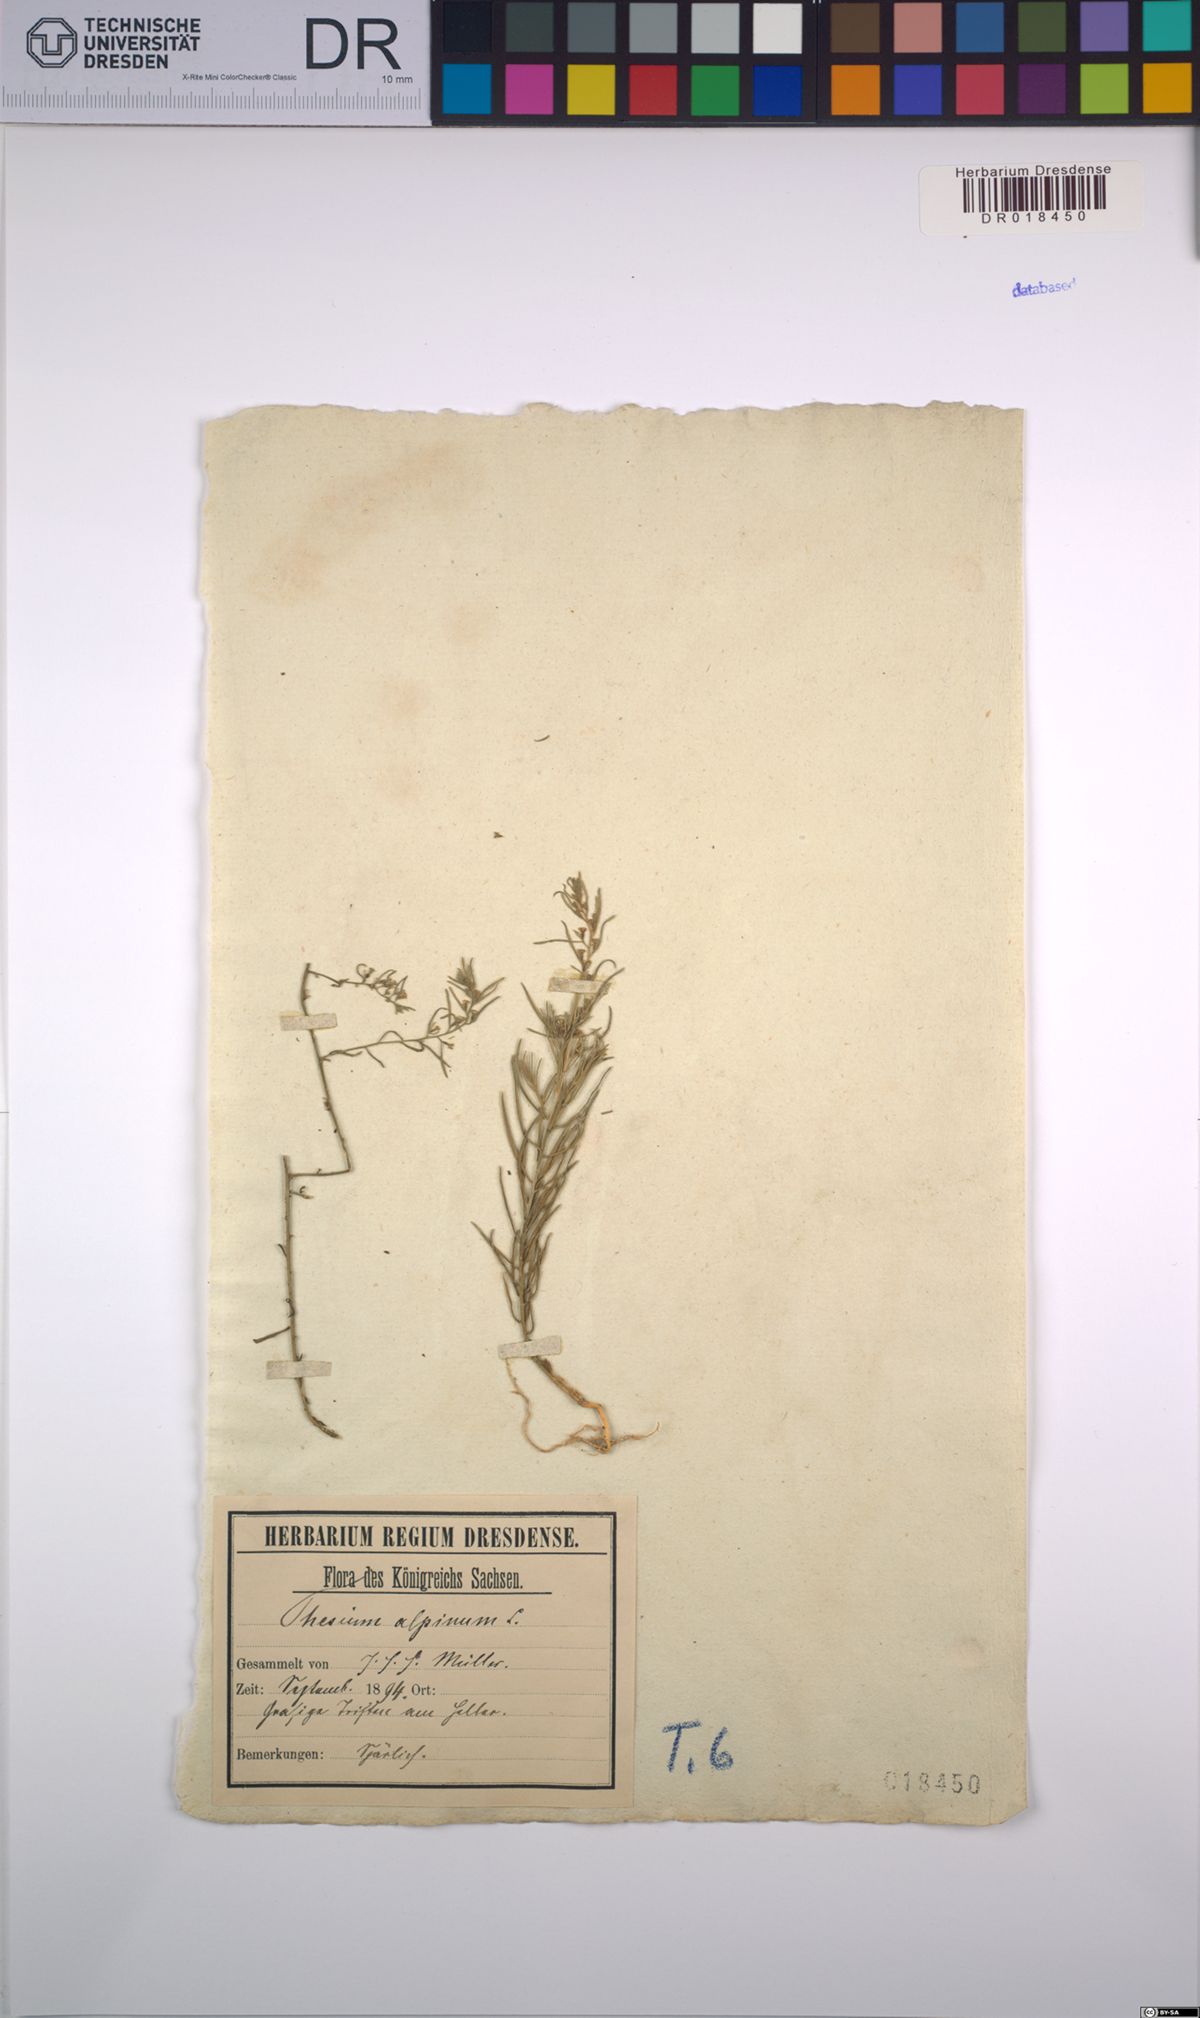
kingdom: Plantae
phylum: Tracheophyta
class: Magnoliopsida
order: Santalales
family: Thesiaceae
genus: Thesium
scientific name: Thesium alpinum
